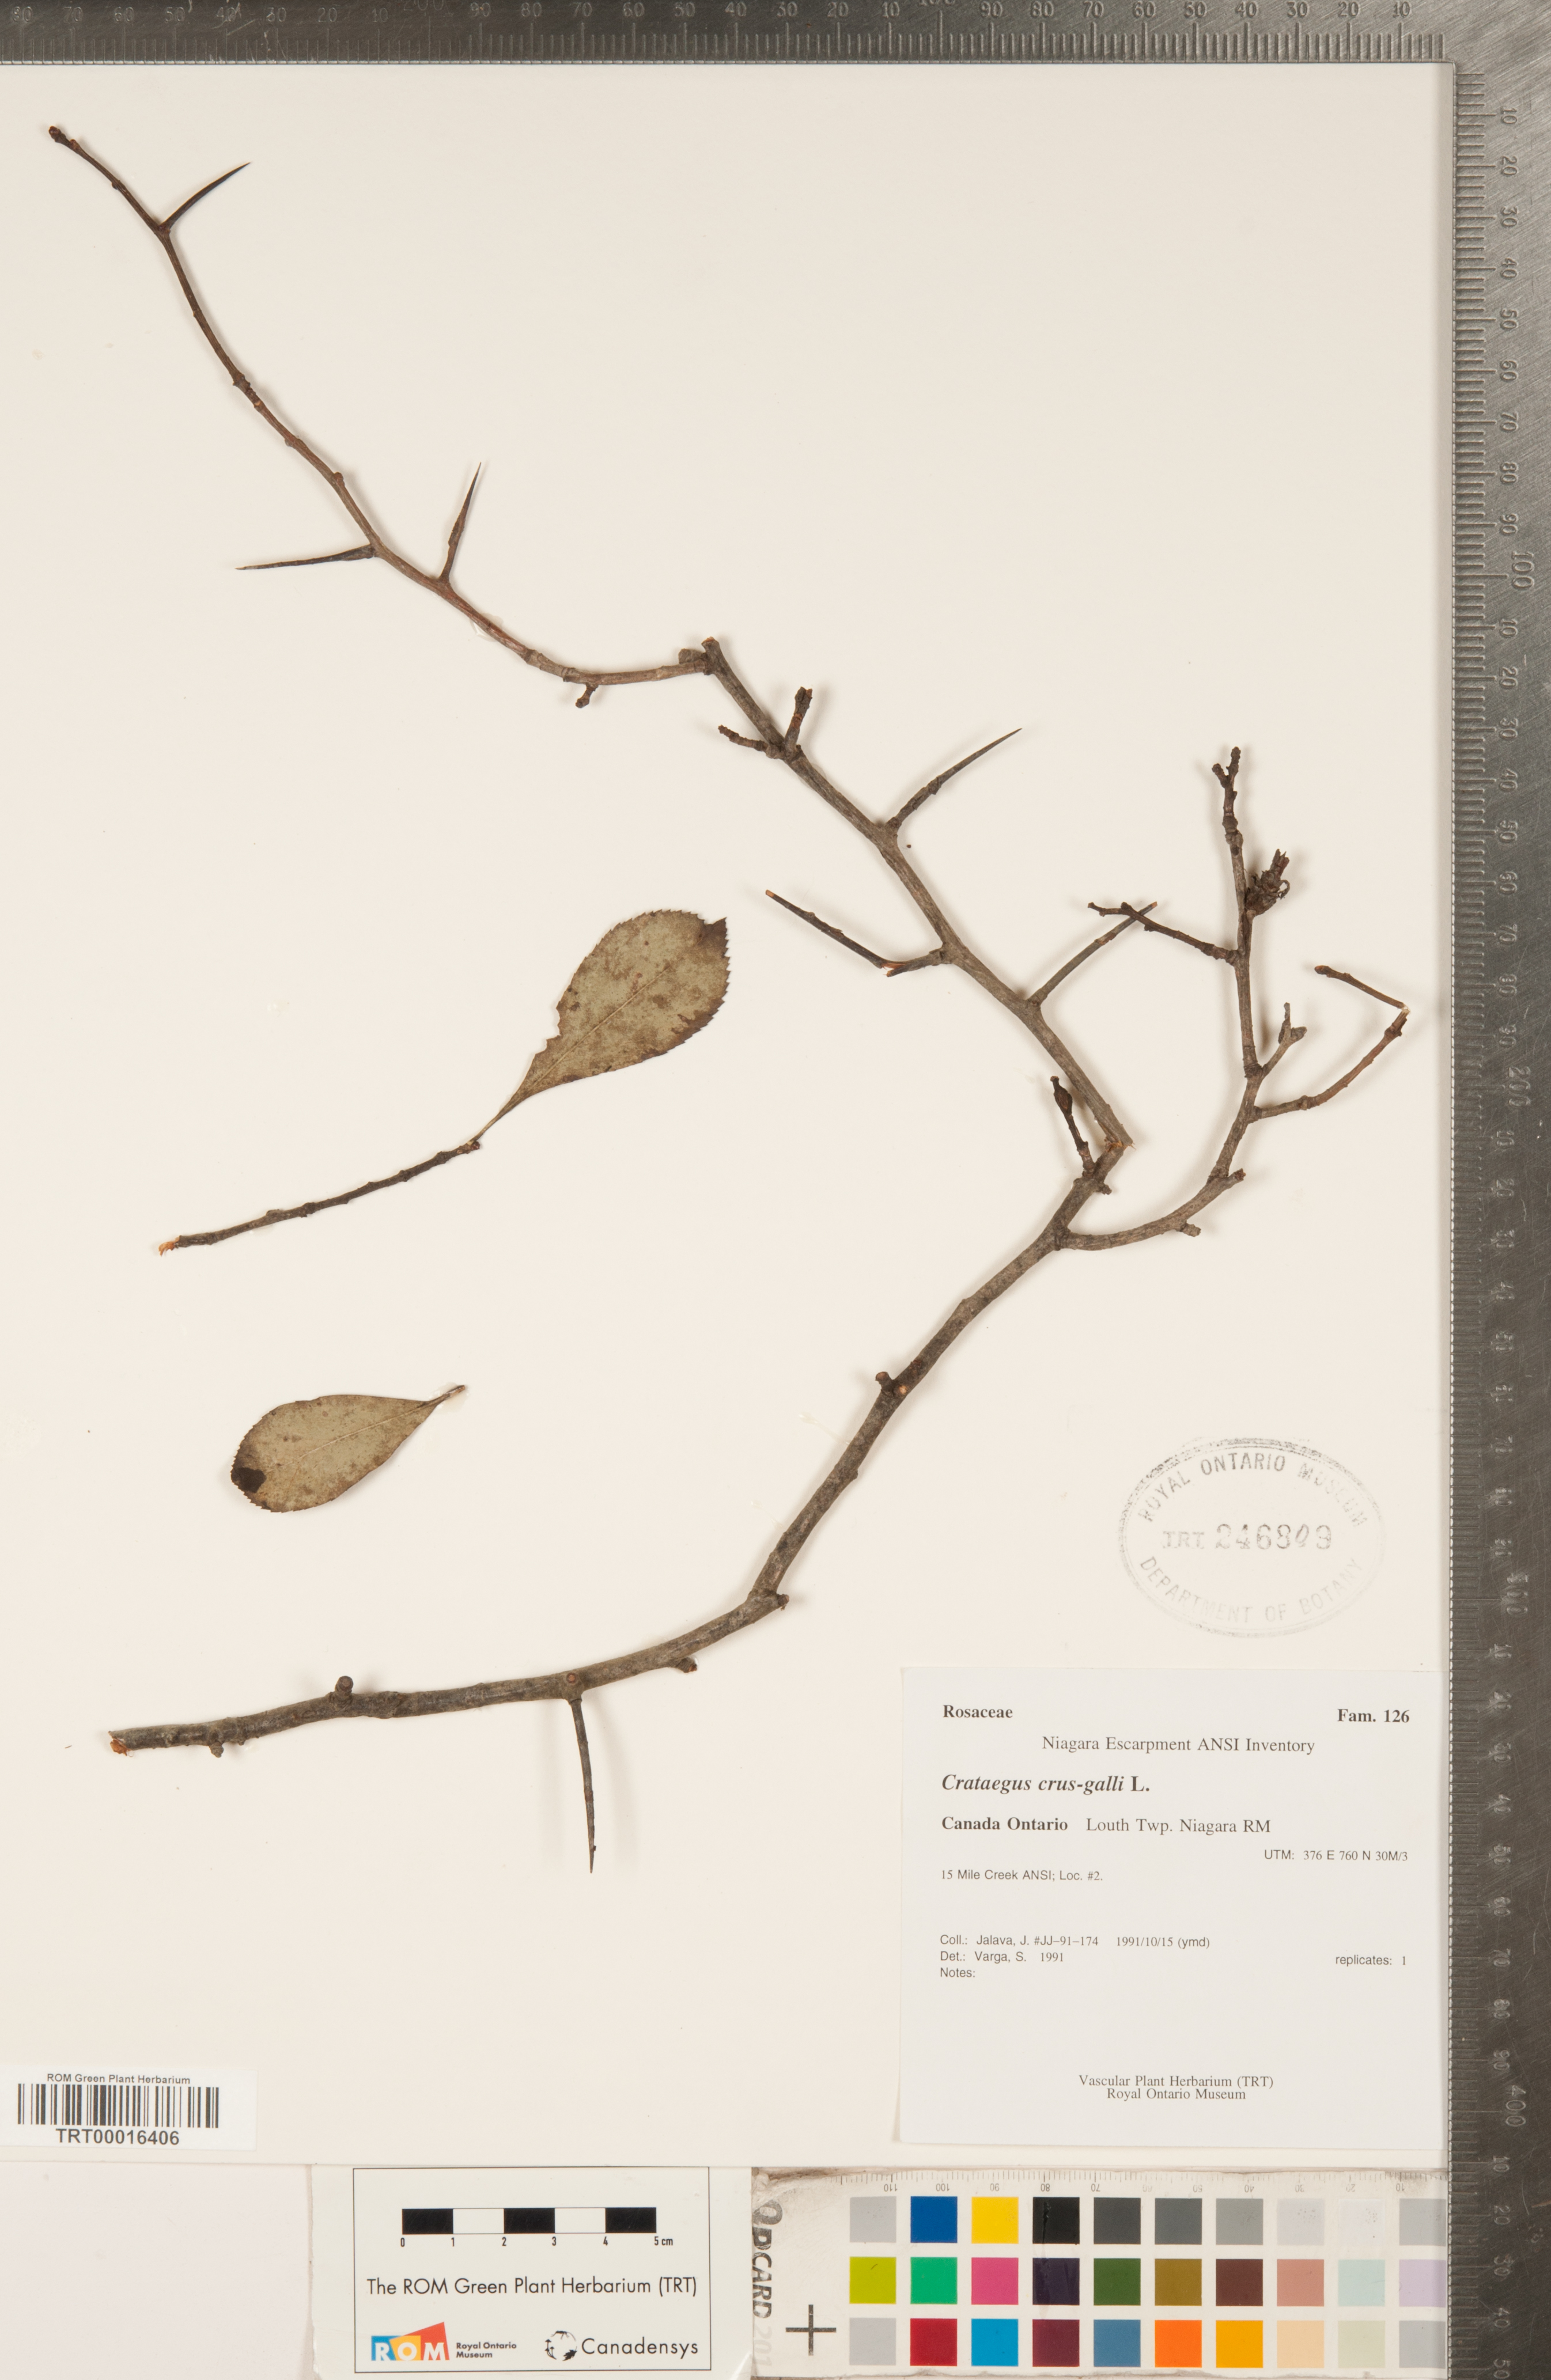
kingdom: Plantae
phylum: Tracheophyta
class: Magnoliopsida
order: Rosales
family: Rosaceae
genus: Crataegus
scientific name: Crataegus crus-galli
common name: Cockspurthorn
